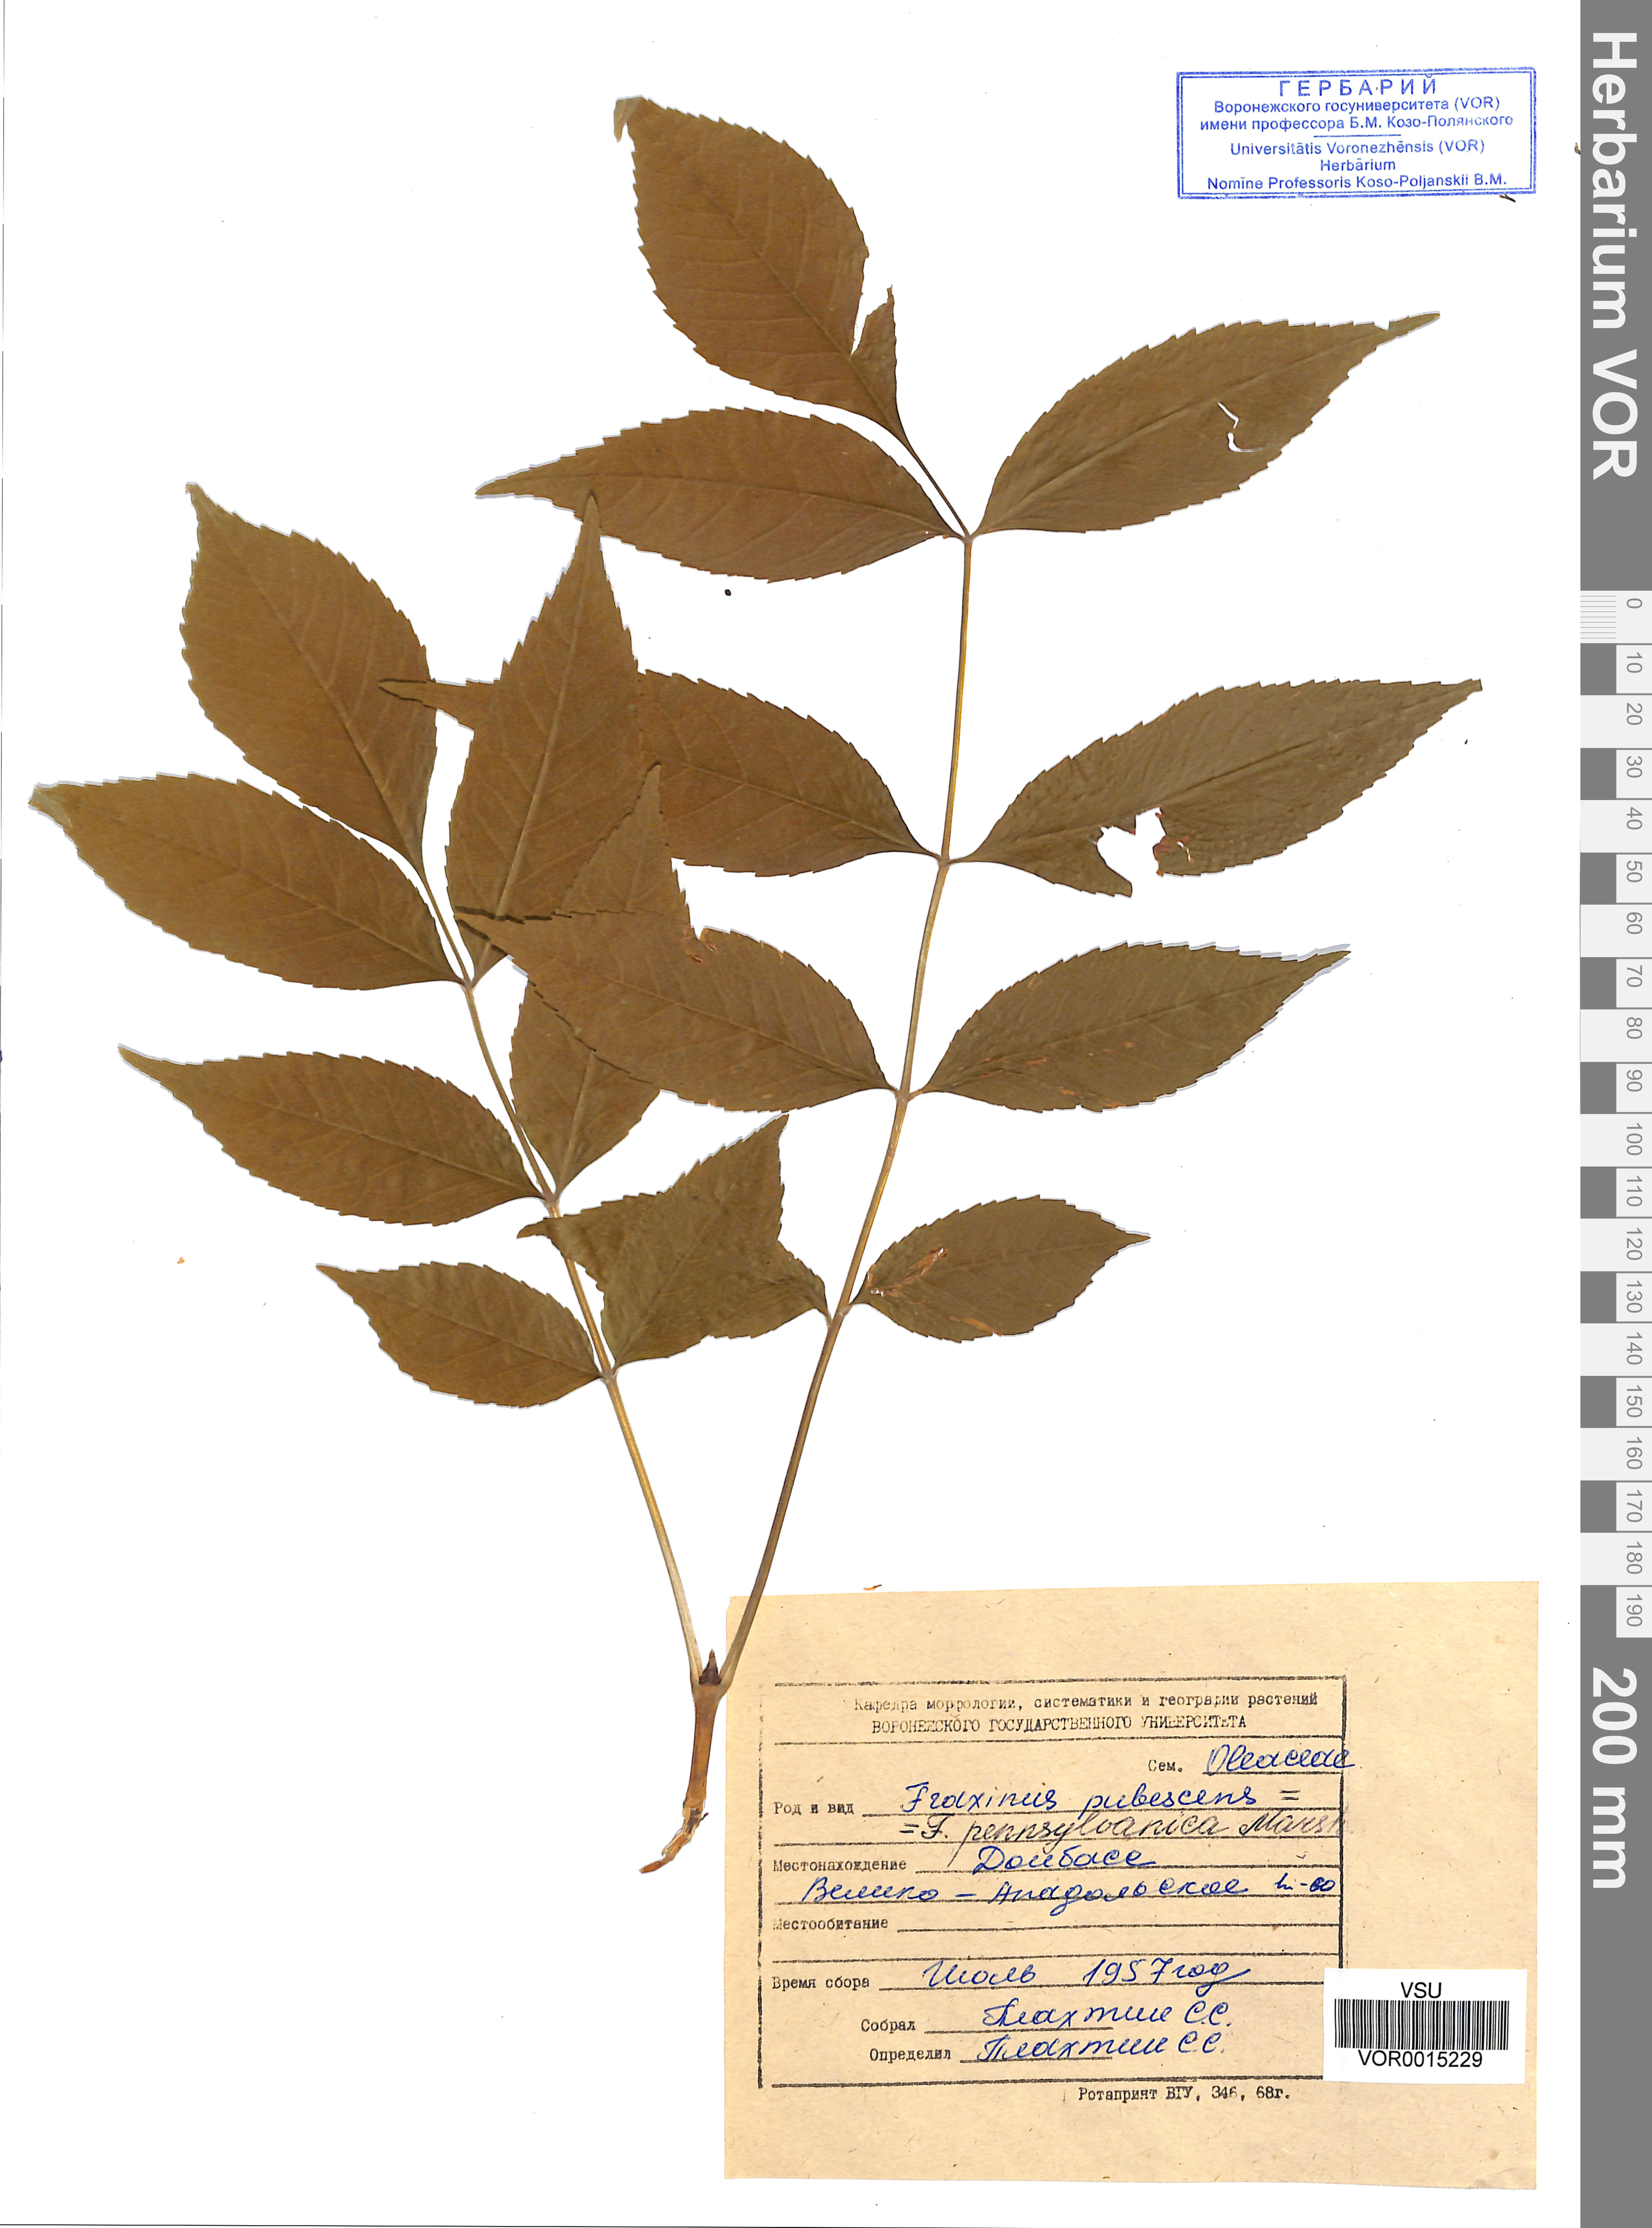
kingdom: Plantae
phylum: Tracheophyta
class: Magnoliopsida
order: Lamiales
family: Oleaceae
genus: Fraxinus
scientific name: Fraxinus pennsylvanica
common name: Green ash
